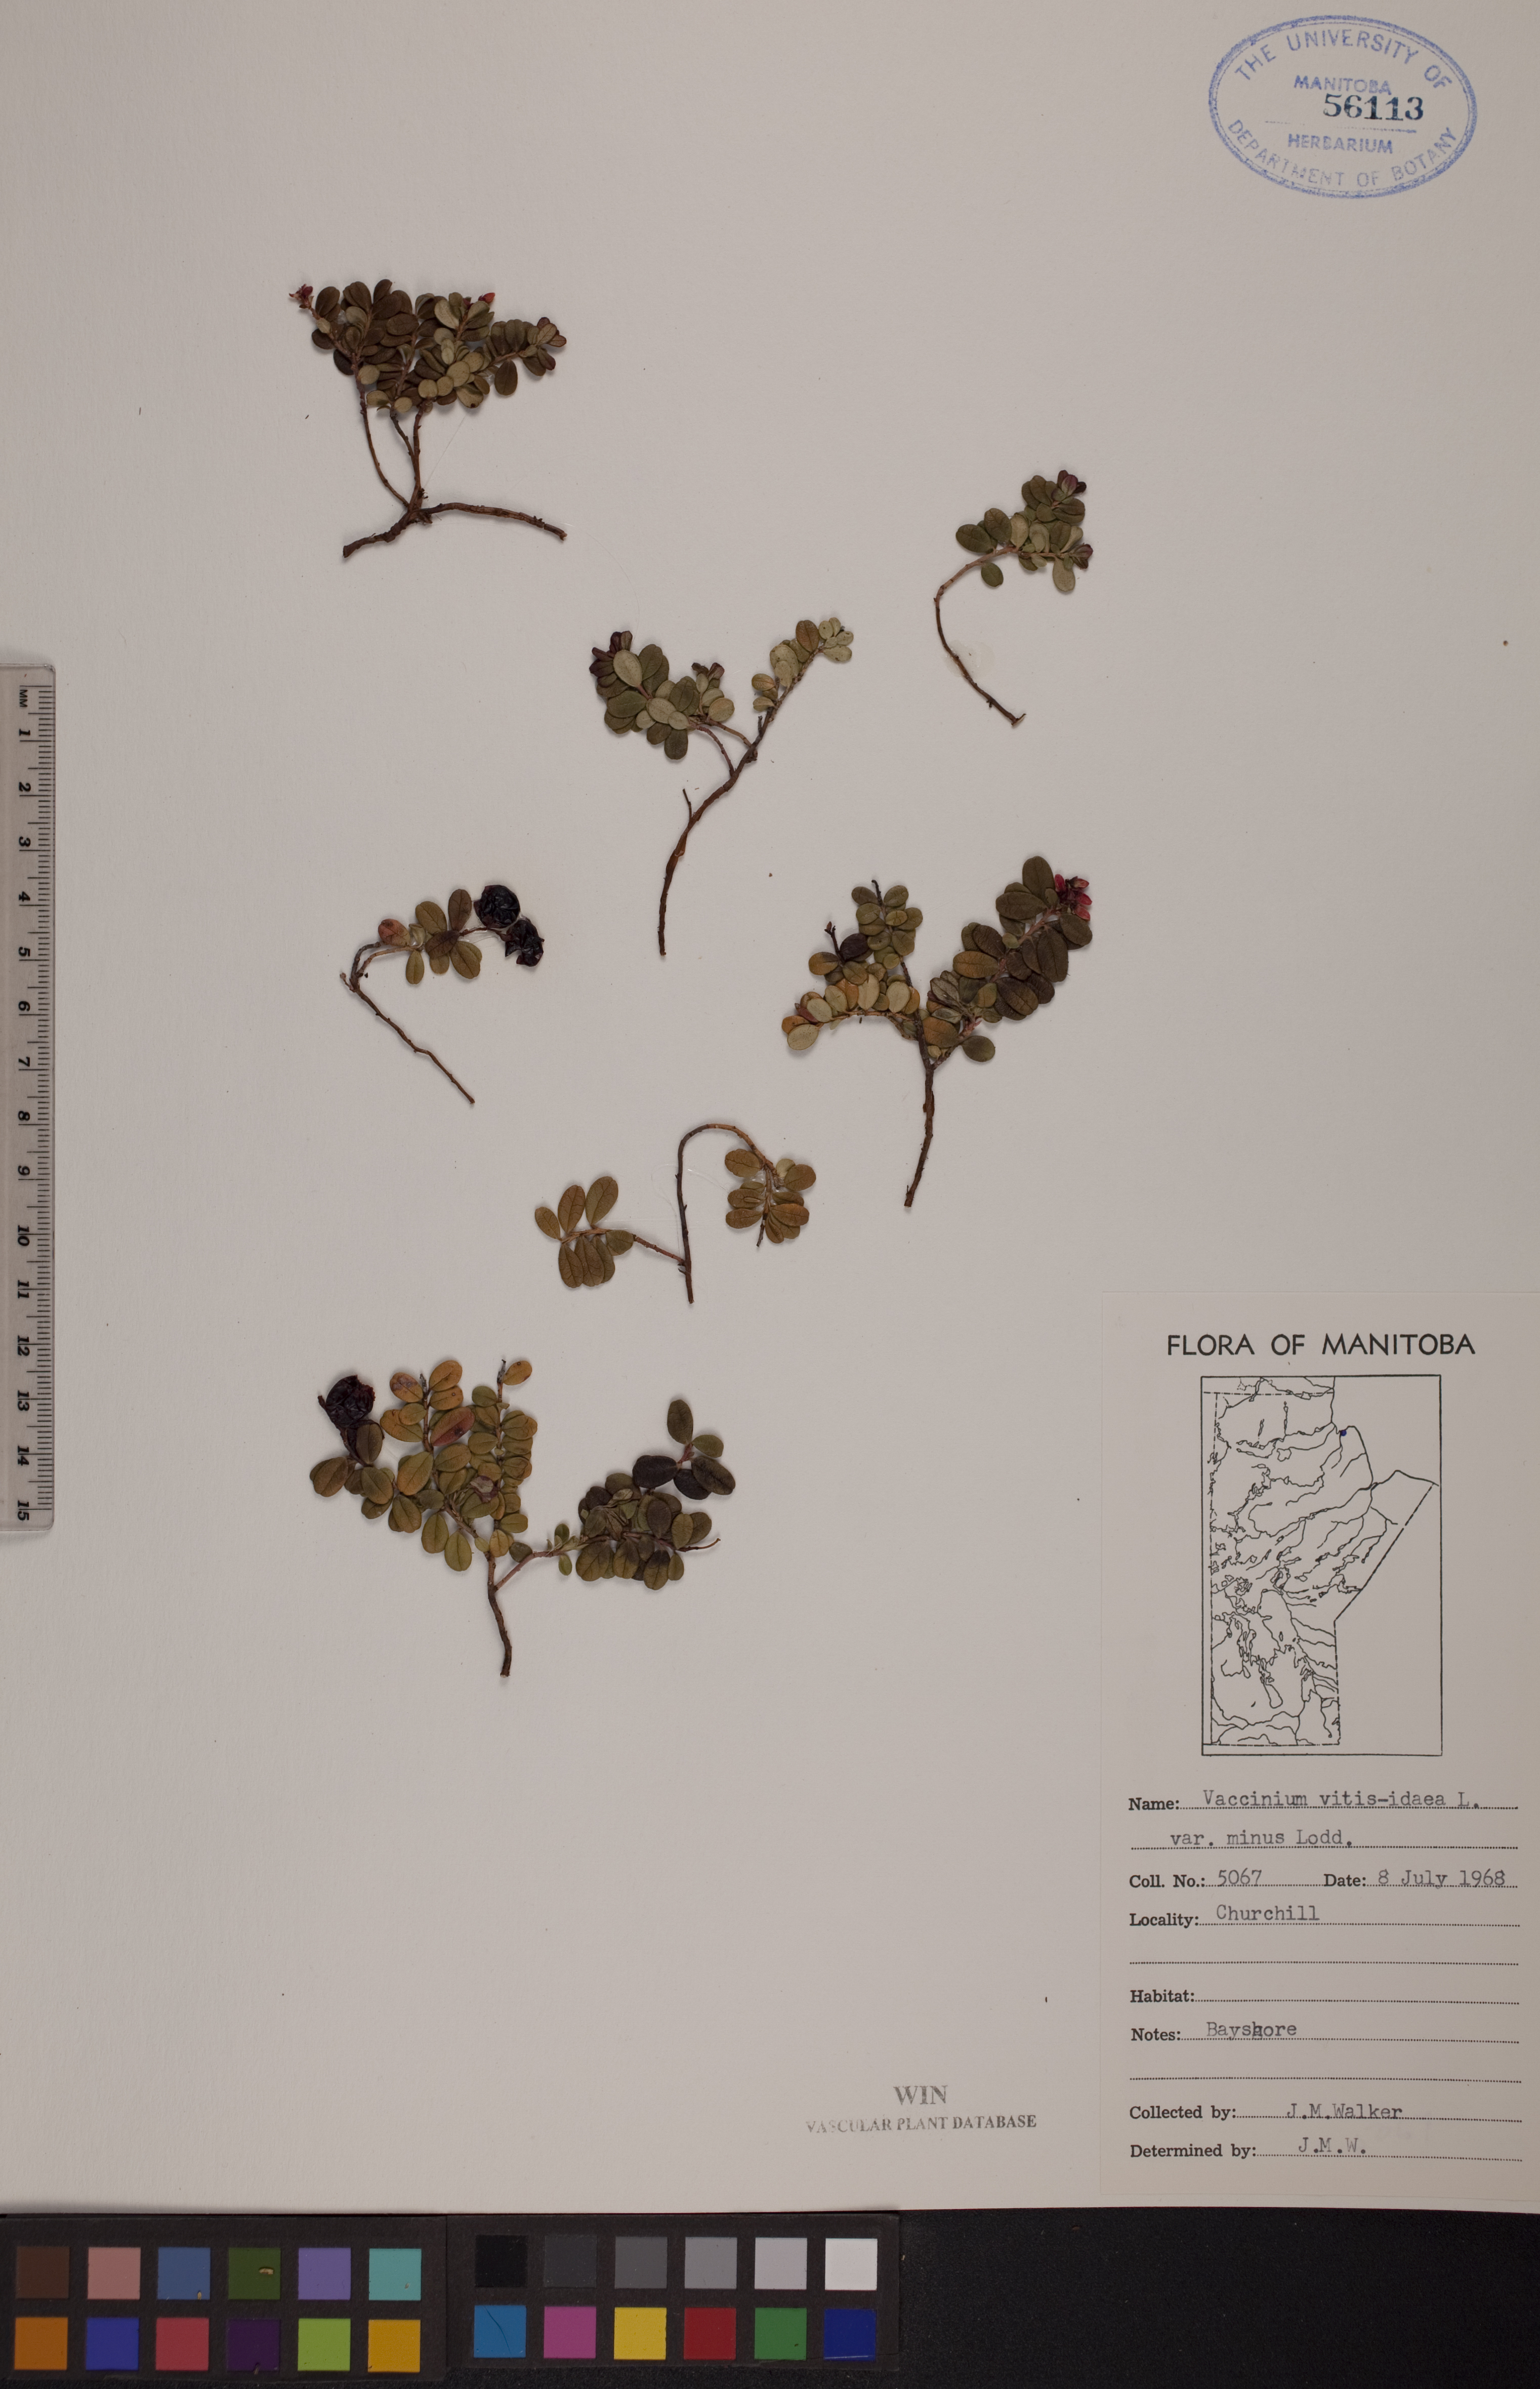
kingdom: Plantae
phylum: Tracheophyta
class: Magnoliopsida
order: Ericales
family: Ericaceae
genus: Vaccinium
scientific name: Vaccinium vitis-idaea
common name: Cowberry
